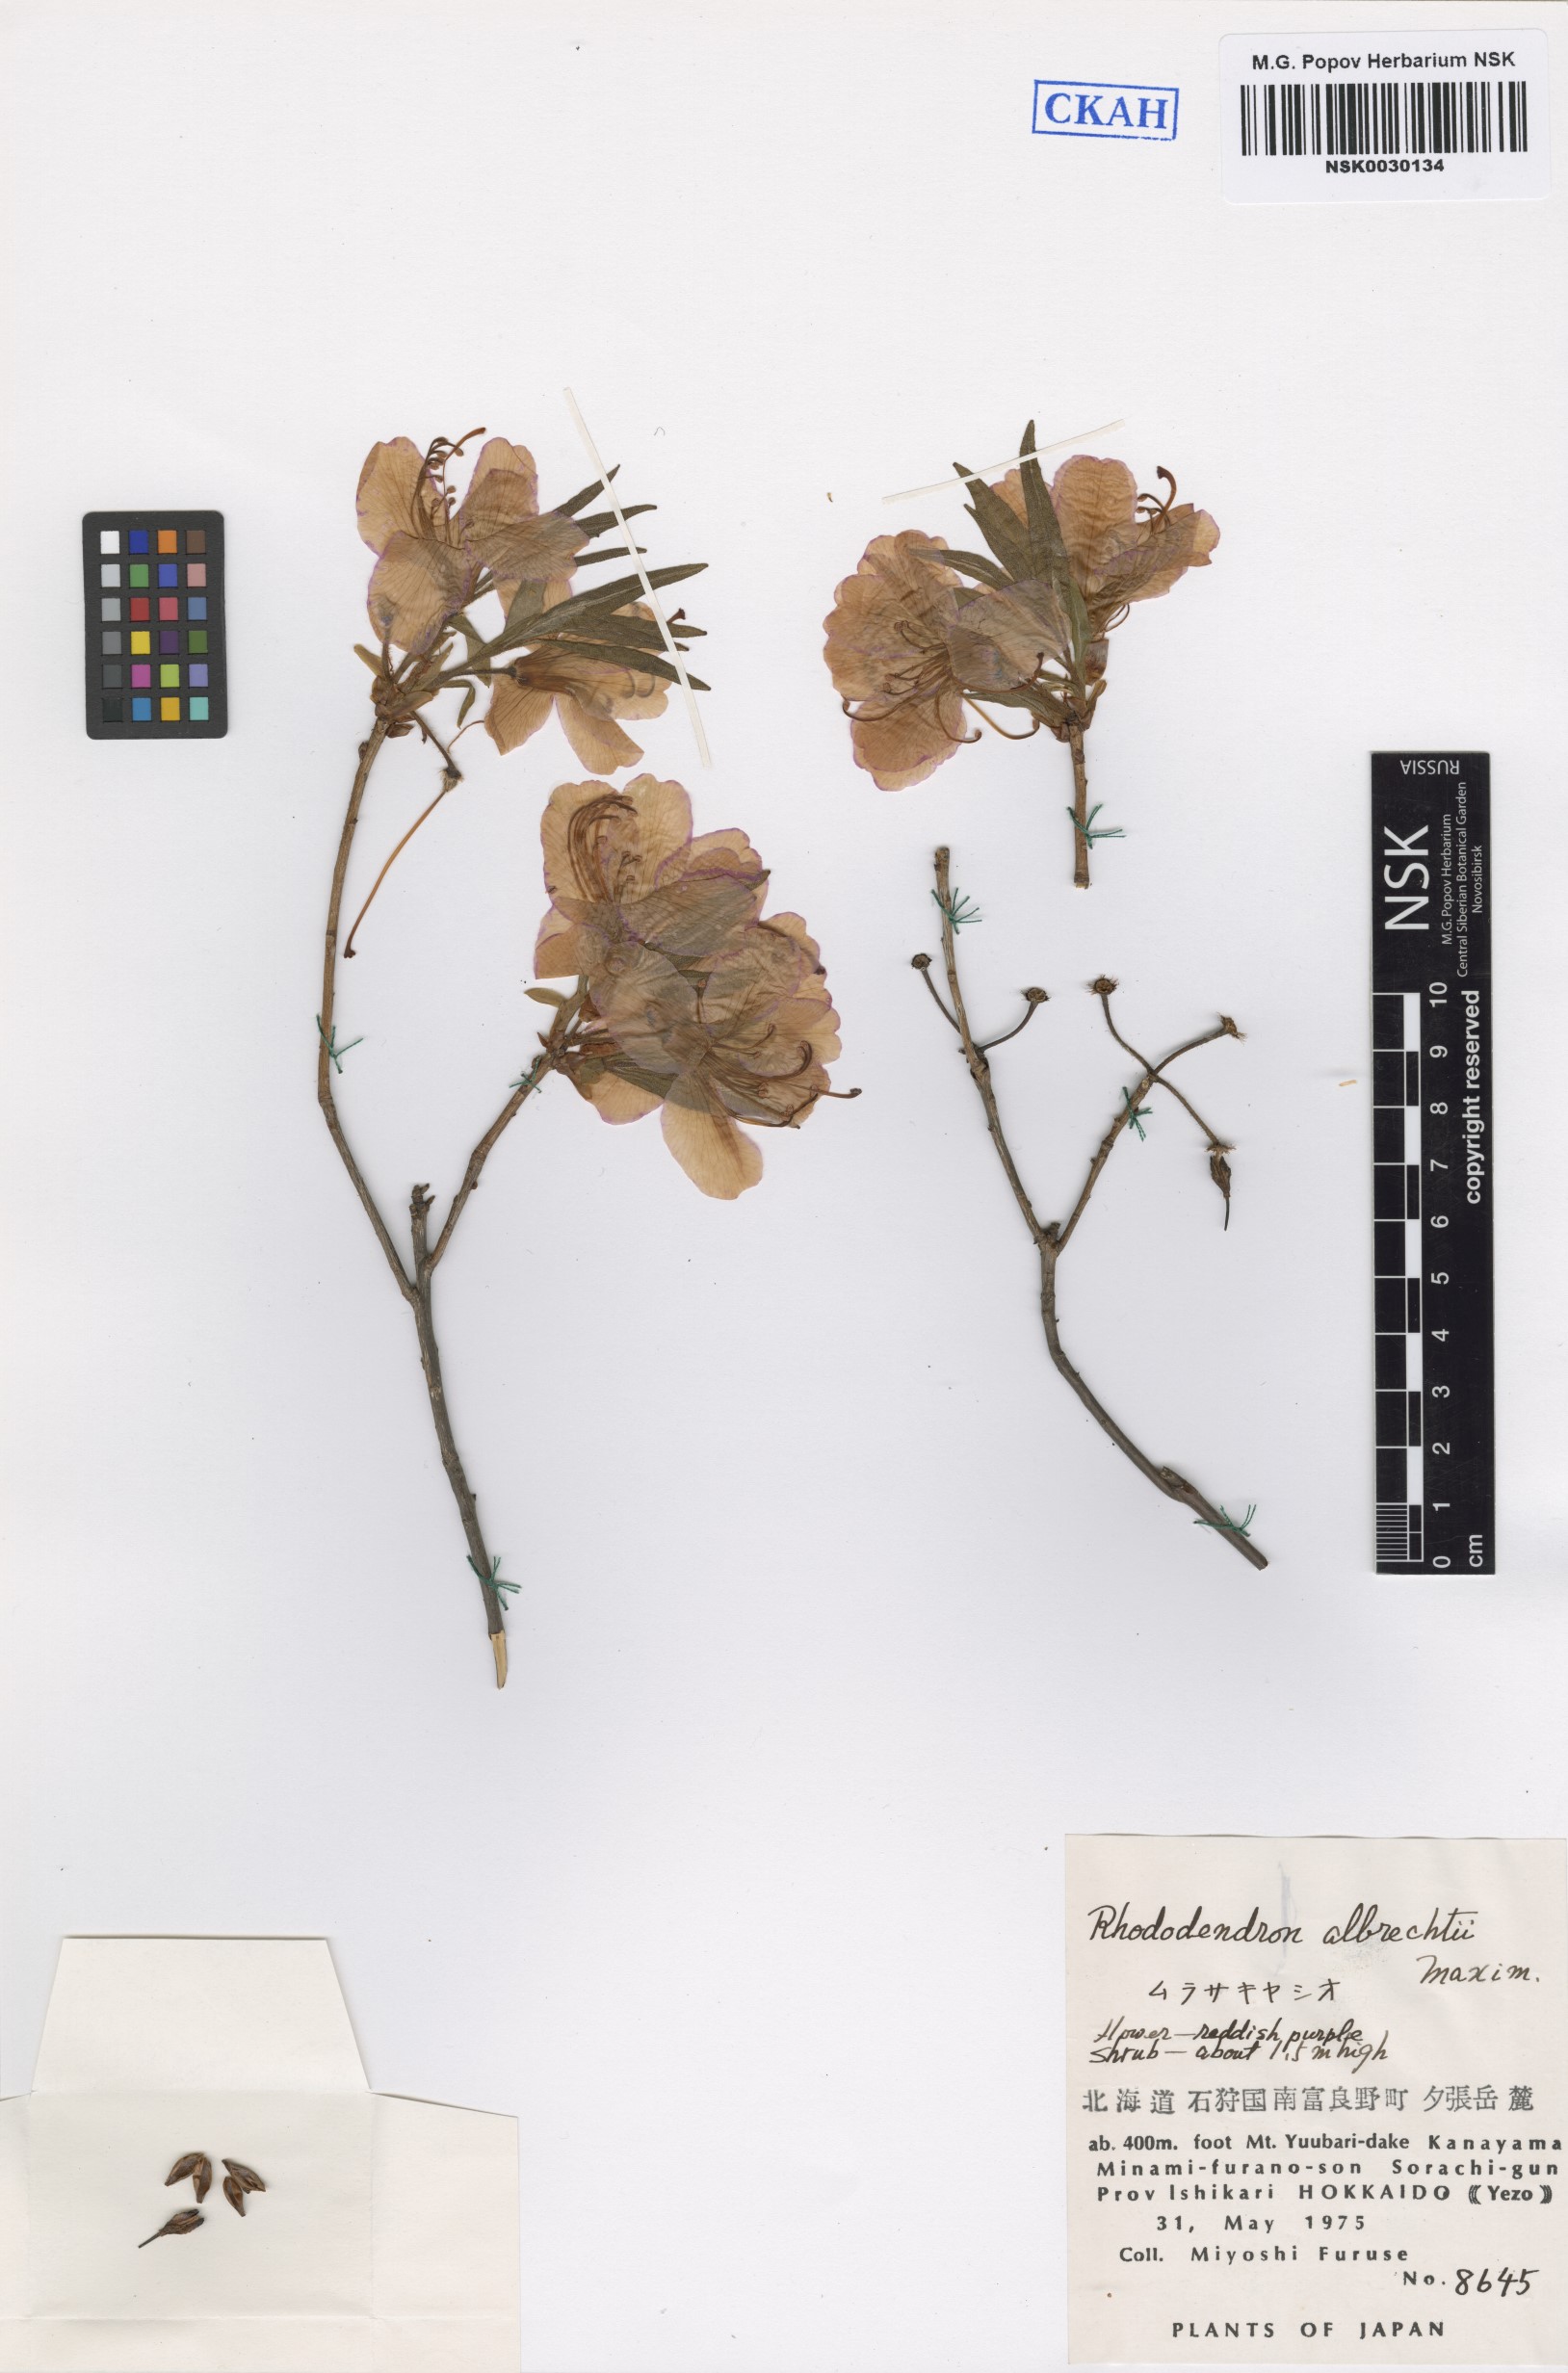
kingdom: Plantae
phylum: Tracheophyta
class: Magnoliopsida
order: Ericales
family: Ericaceae
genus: Rhododendron
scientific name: Rhododendron albrechtii
